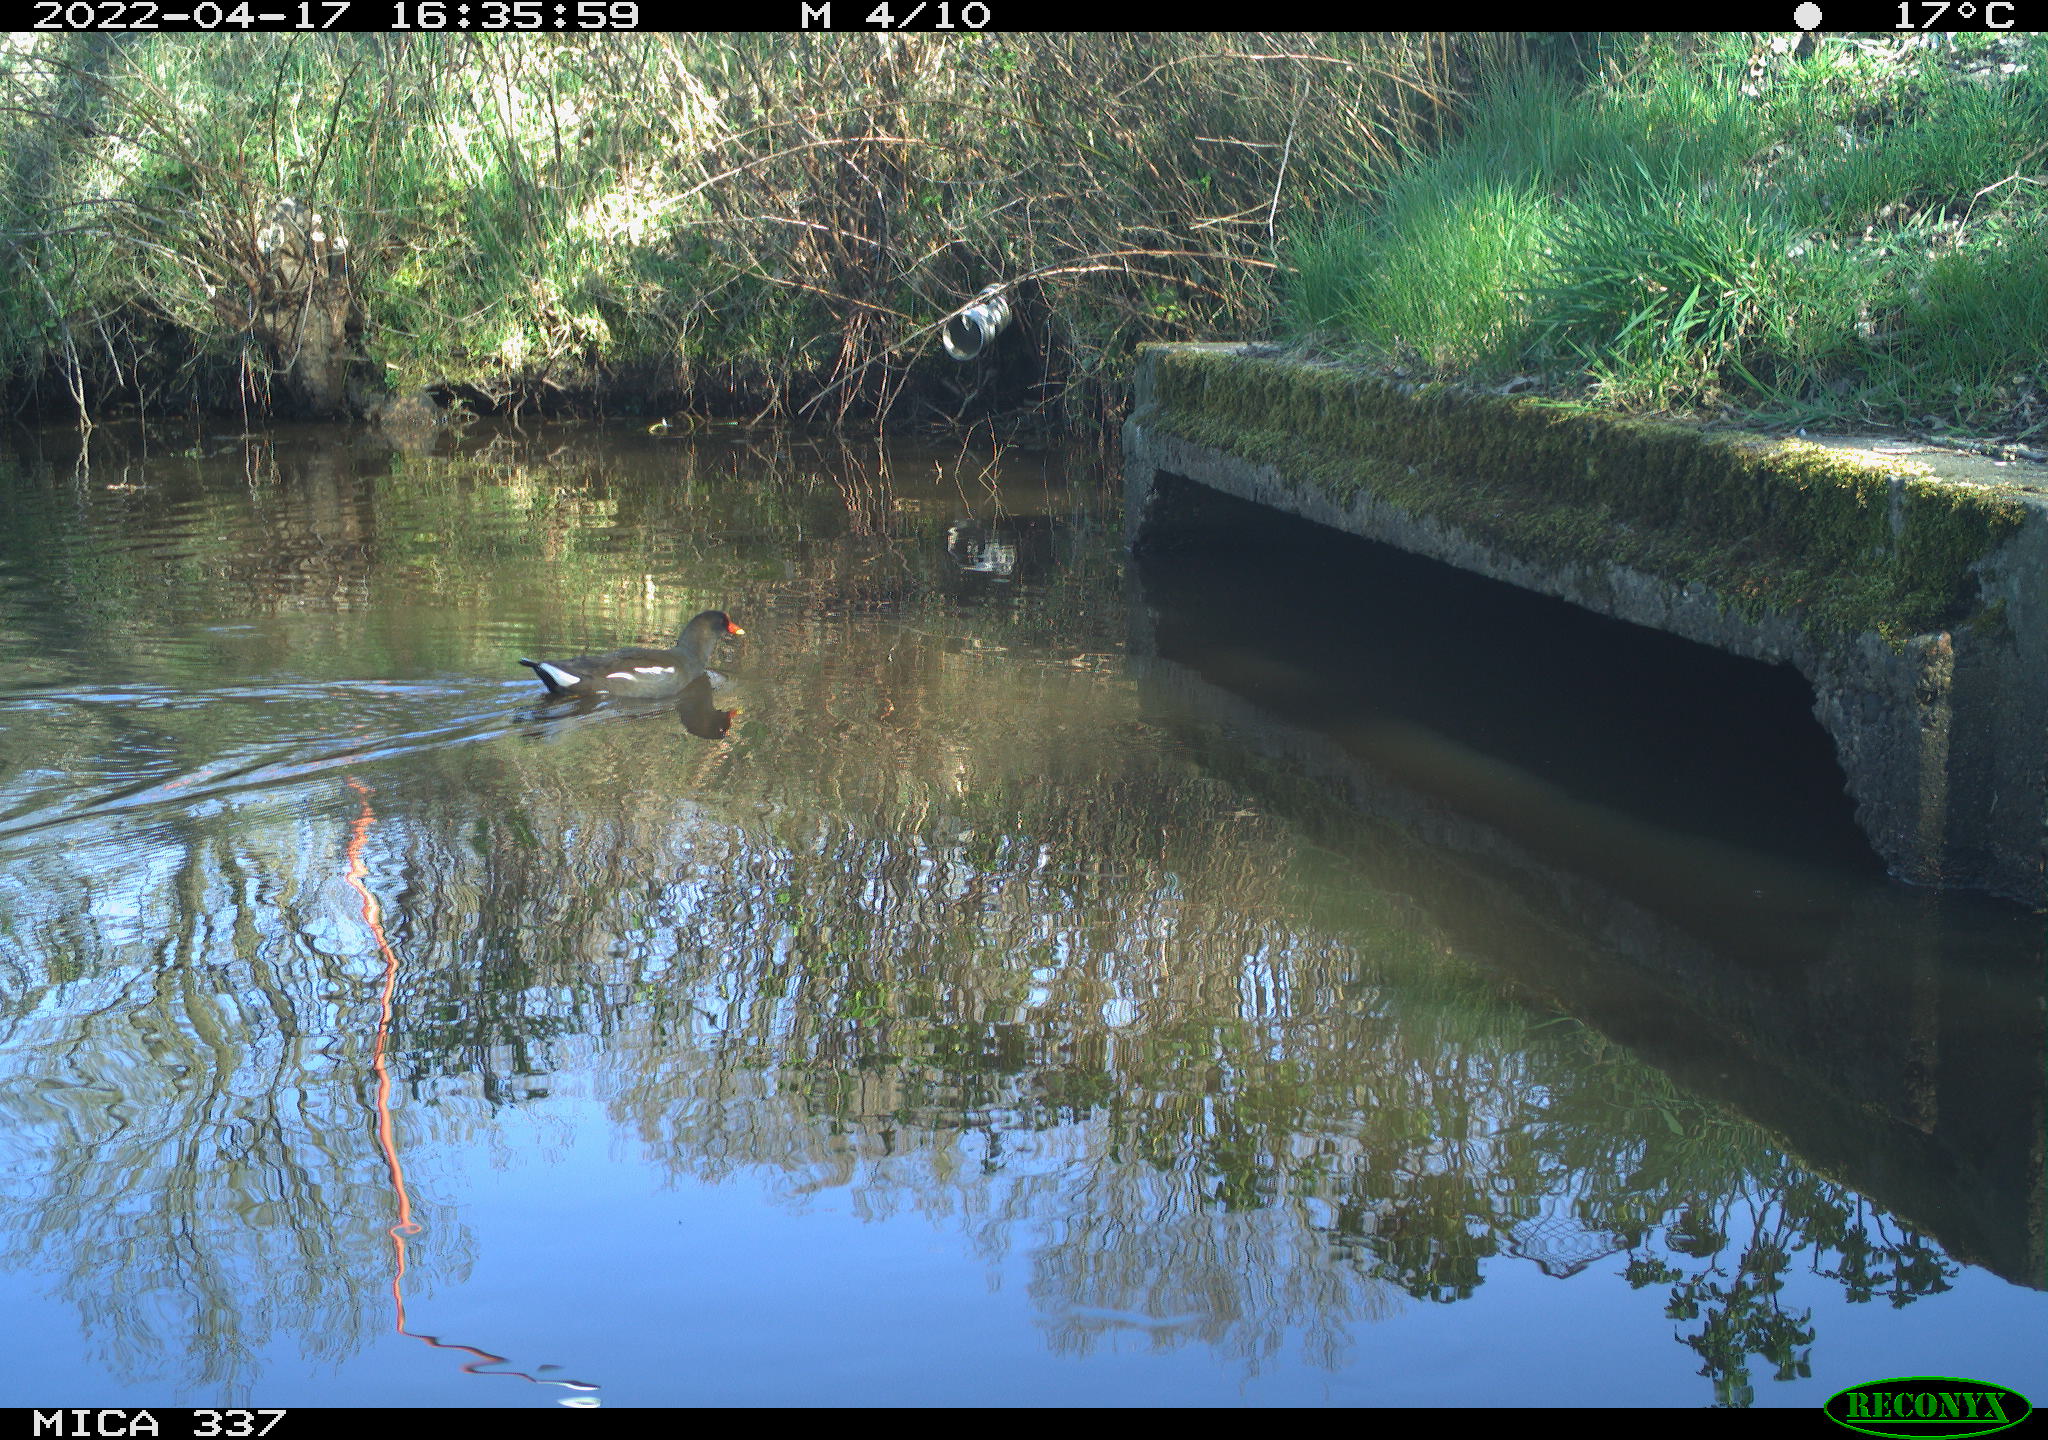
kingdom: Animalia
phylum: Chordata
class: Aves
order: Gruiformes
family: Rallidae
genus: Gallinula
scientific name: Gallinula chloropus
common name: Common moorhen
